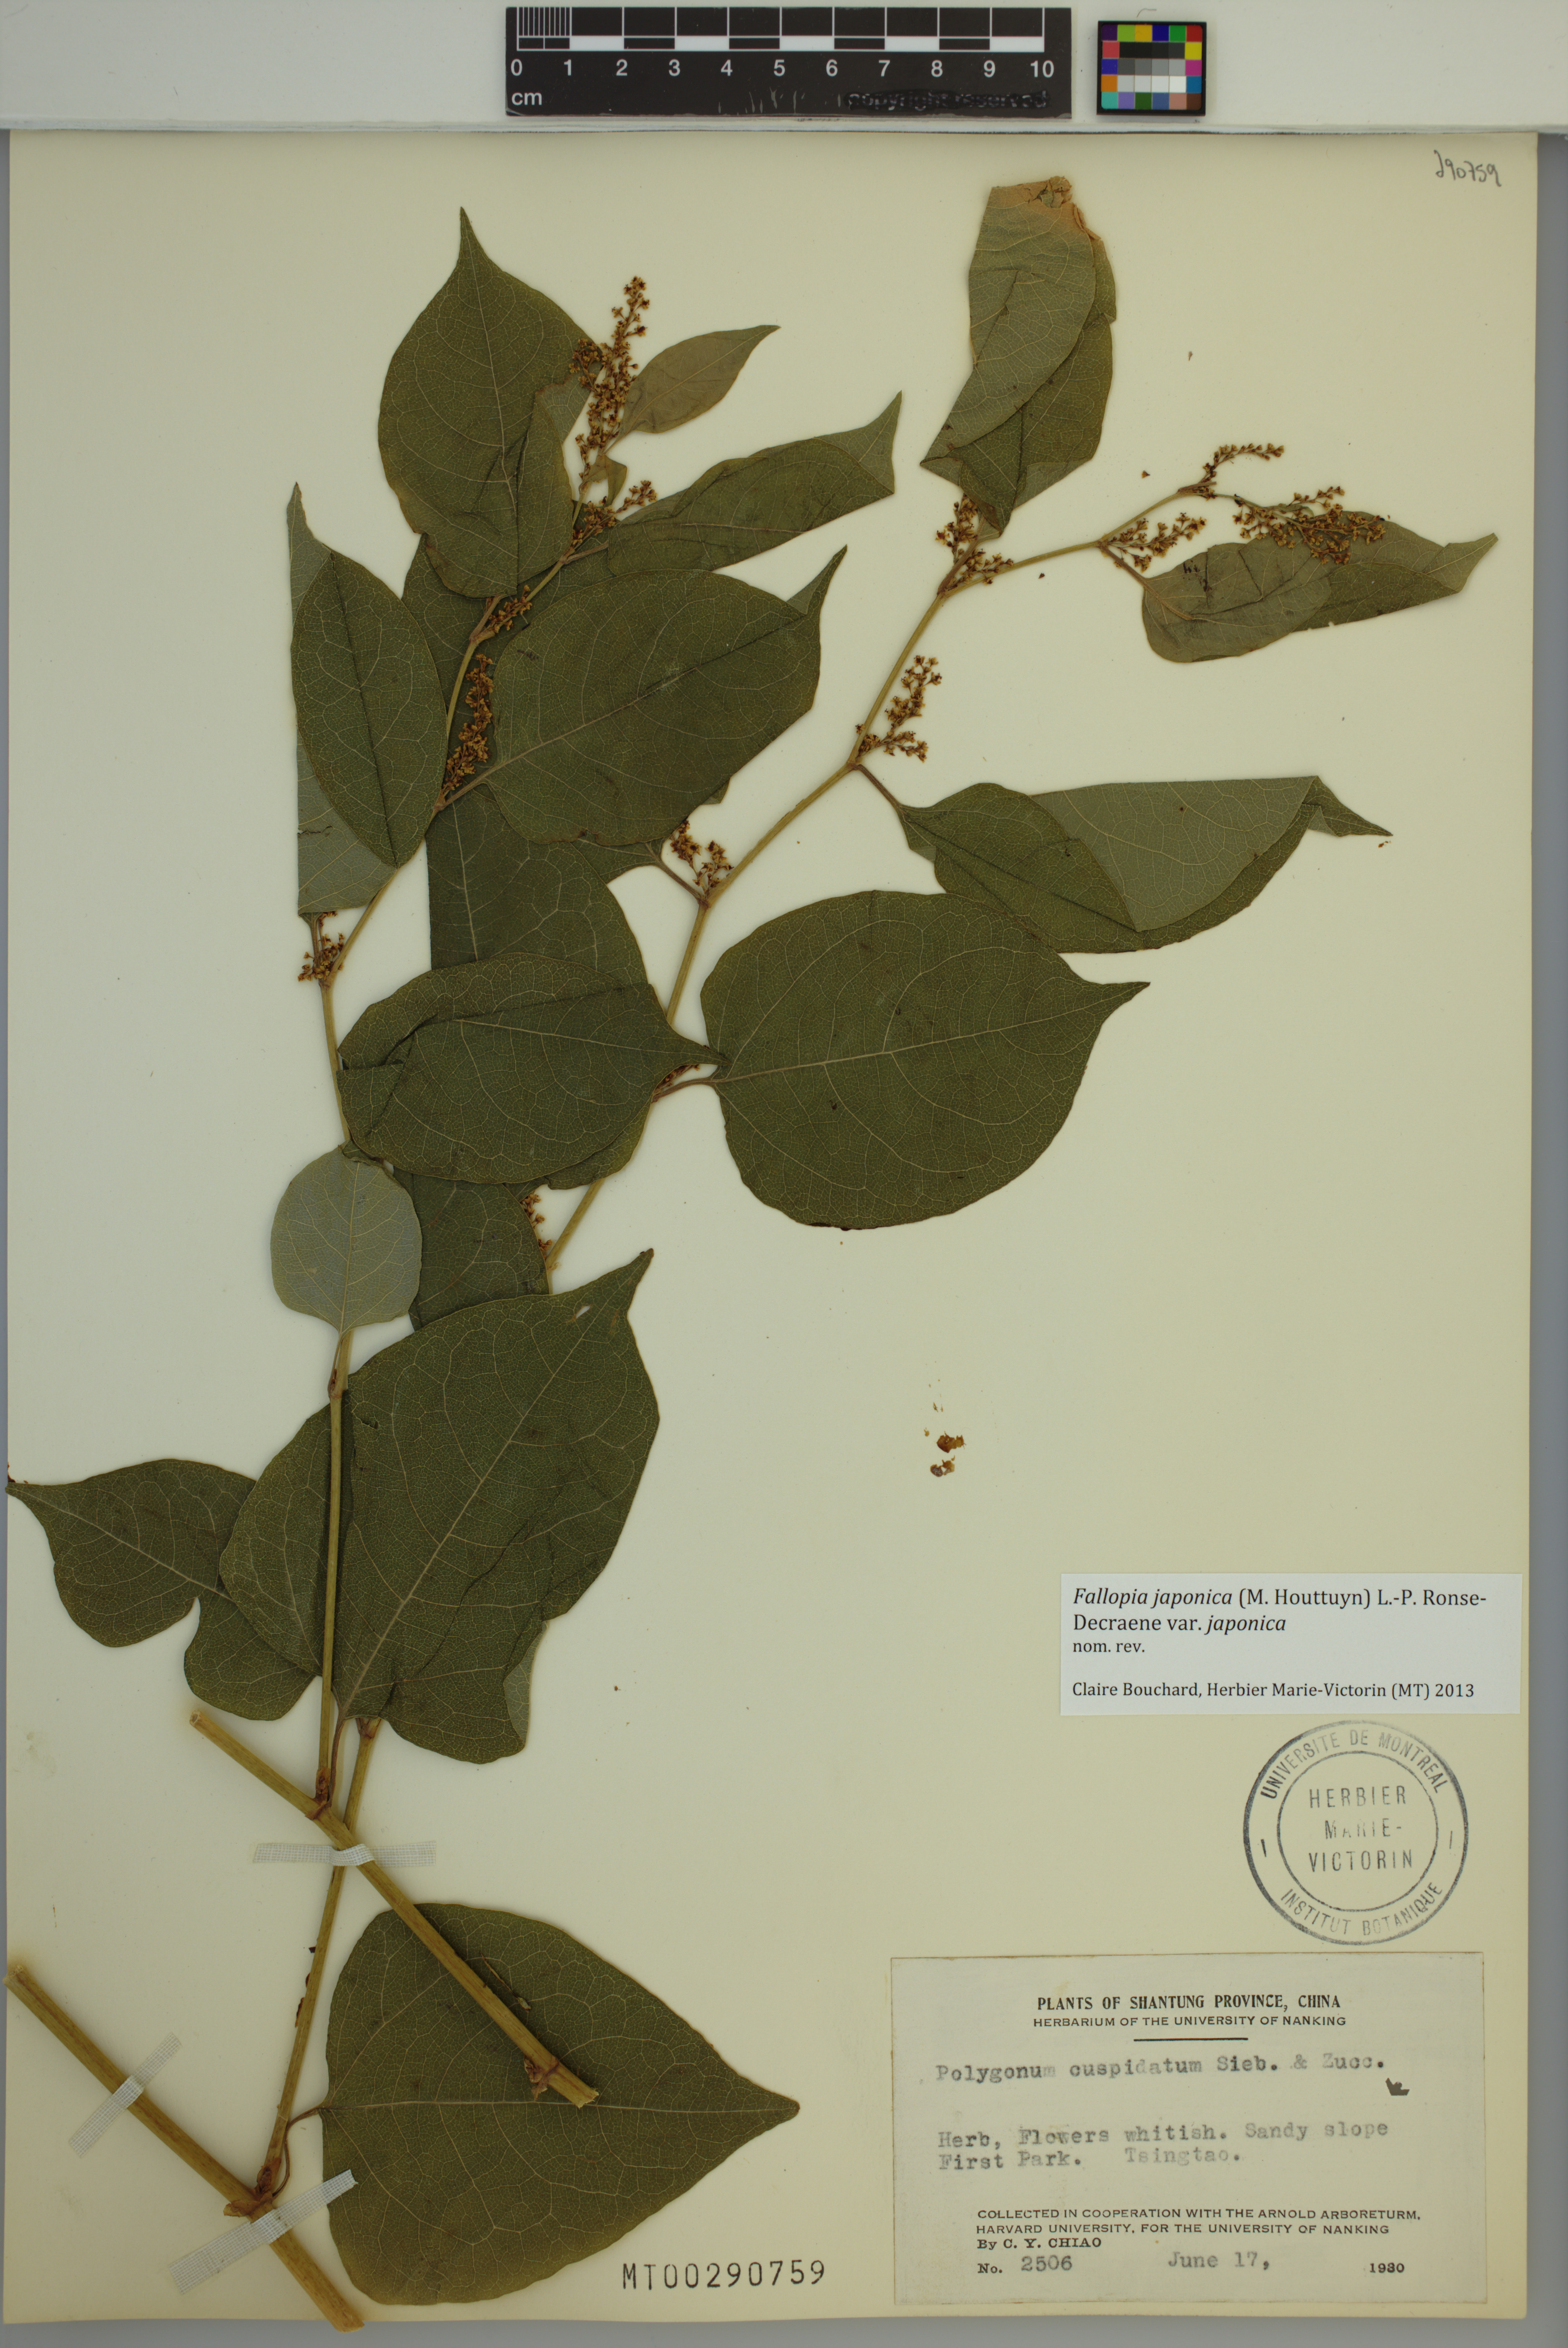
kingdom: Plantae
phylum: Tracheophyta
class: Magnoliopsida
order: Caryophyllales
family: Polygonaceae
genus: Reynoutria
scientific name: Reynoutria japonica
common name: Japanese knotweed
